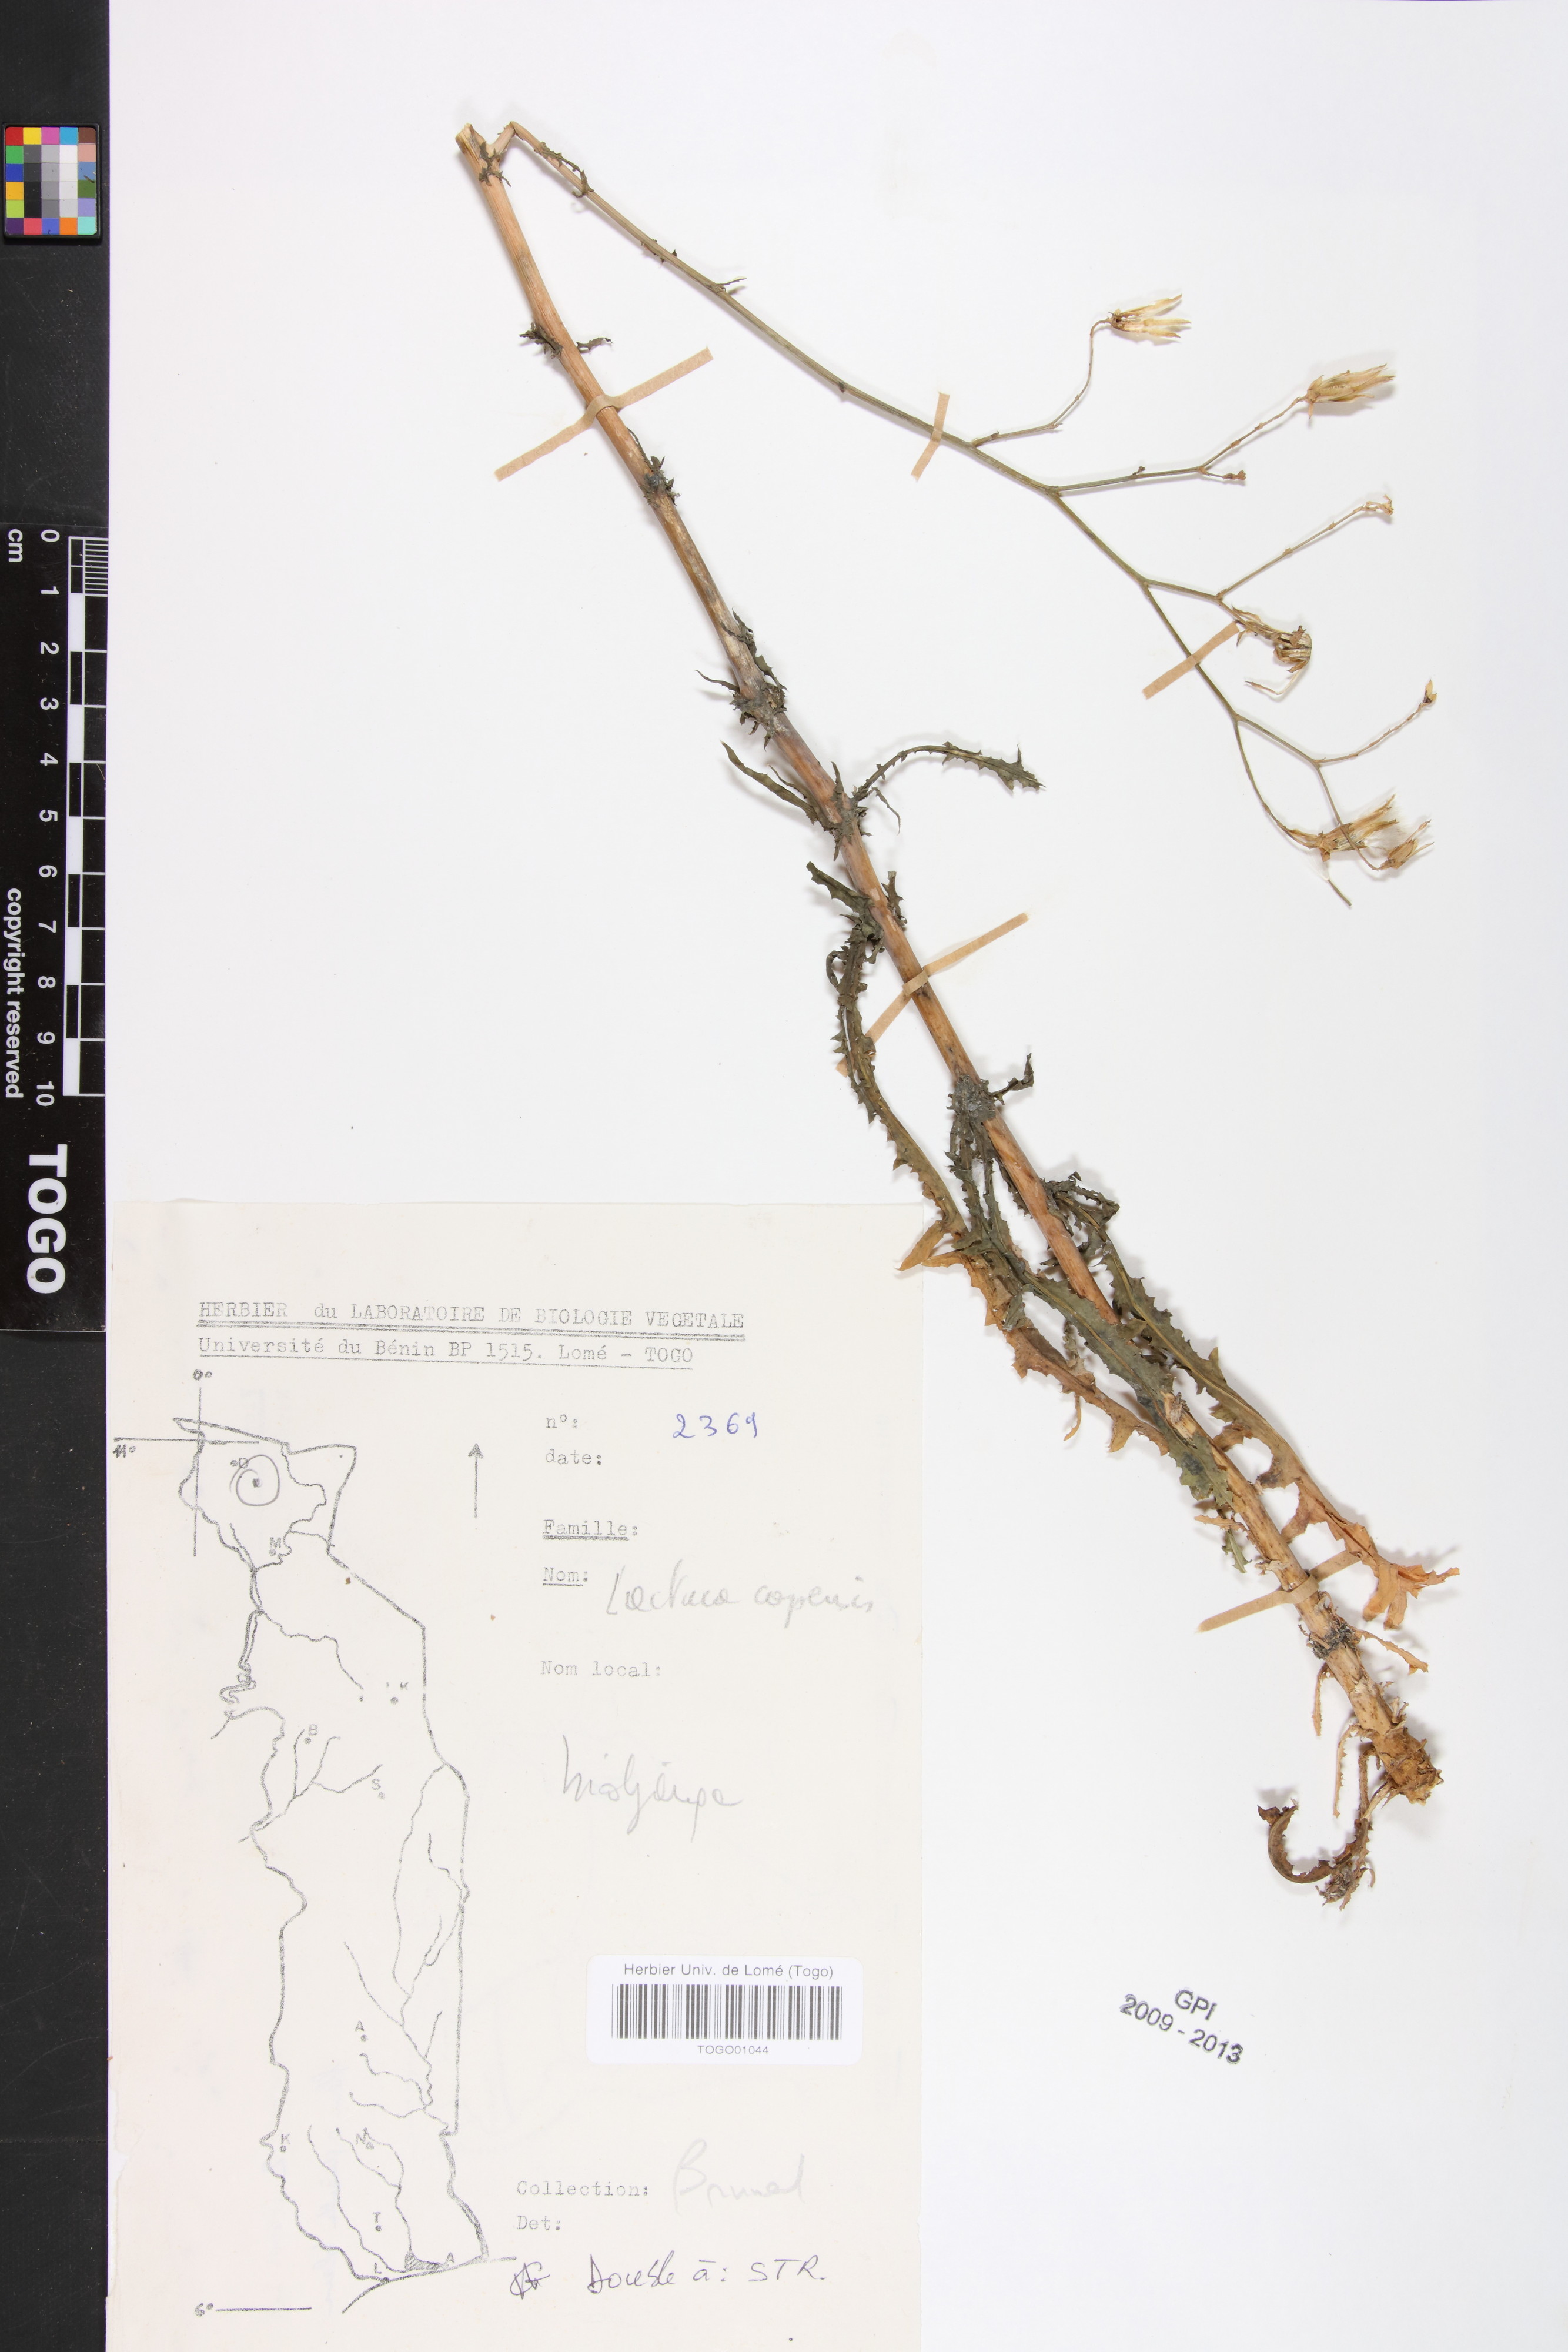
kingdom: Plantae
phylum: Tracheophyta
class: Magnoliopsida
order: Asterales
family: Asteraceae
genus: Lactuca
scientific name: Lactuca inermis
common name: Wild lettuce
